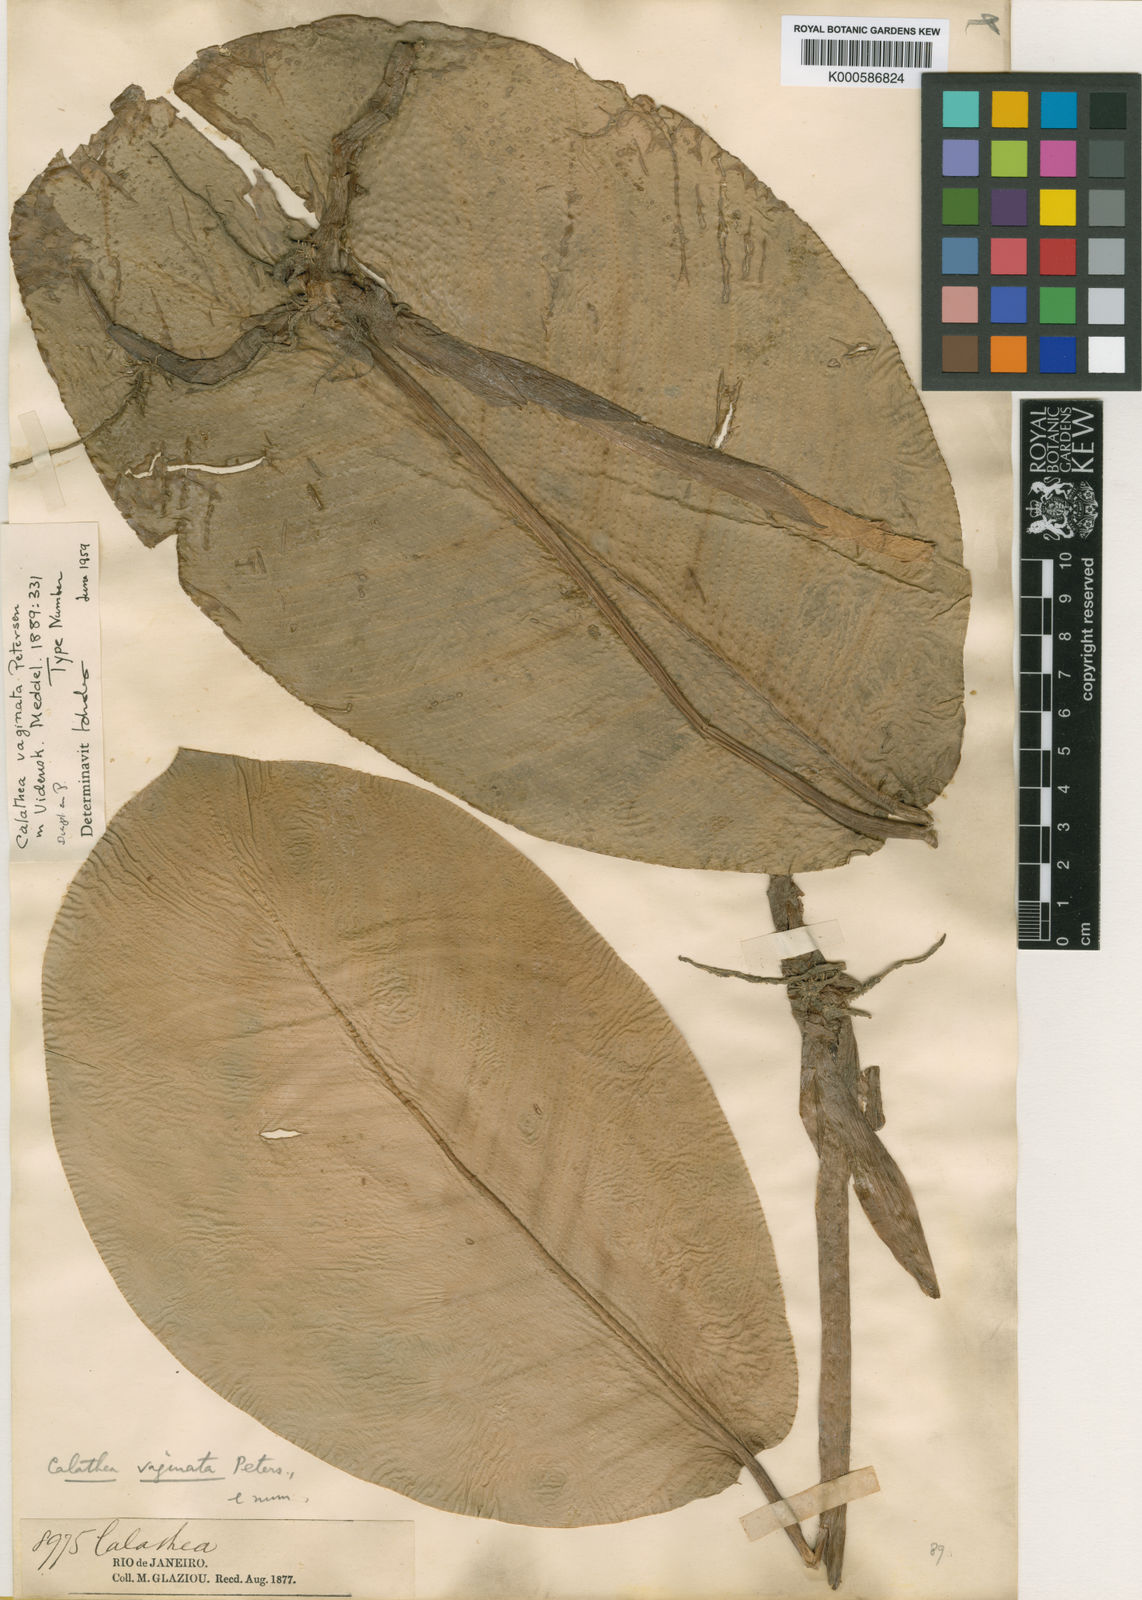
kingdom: Plantae
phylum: Tracheophyta
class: Liliopsida
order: Zingiberales
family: Marantaceae
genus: Goeppertia
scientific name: Goeppertia vaginata
